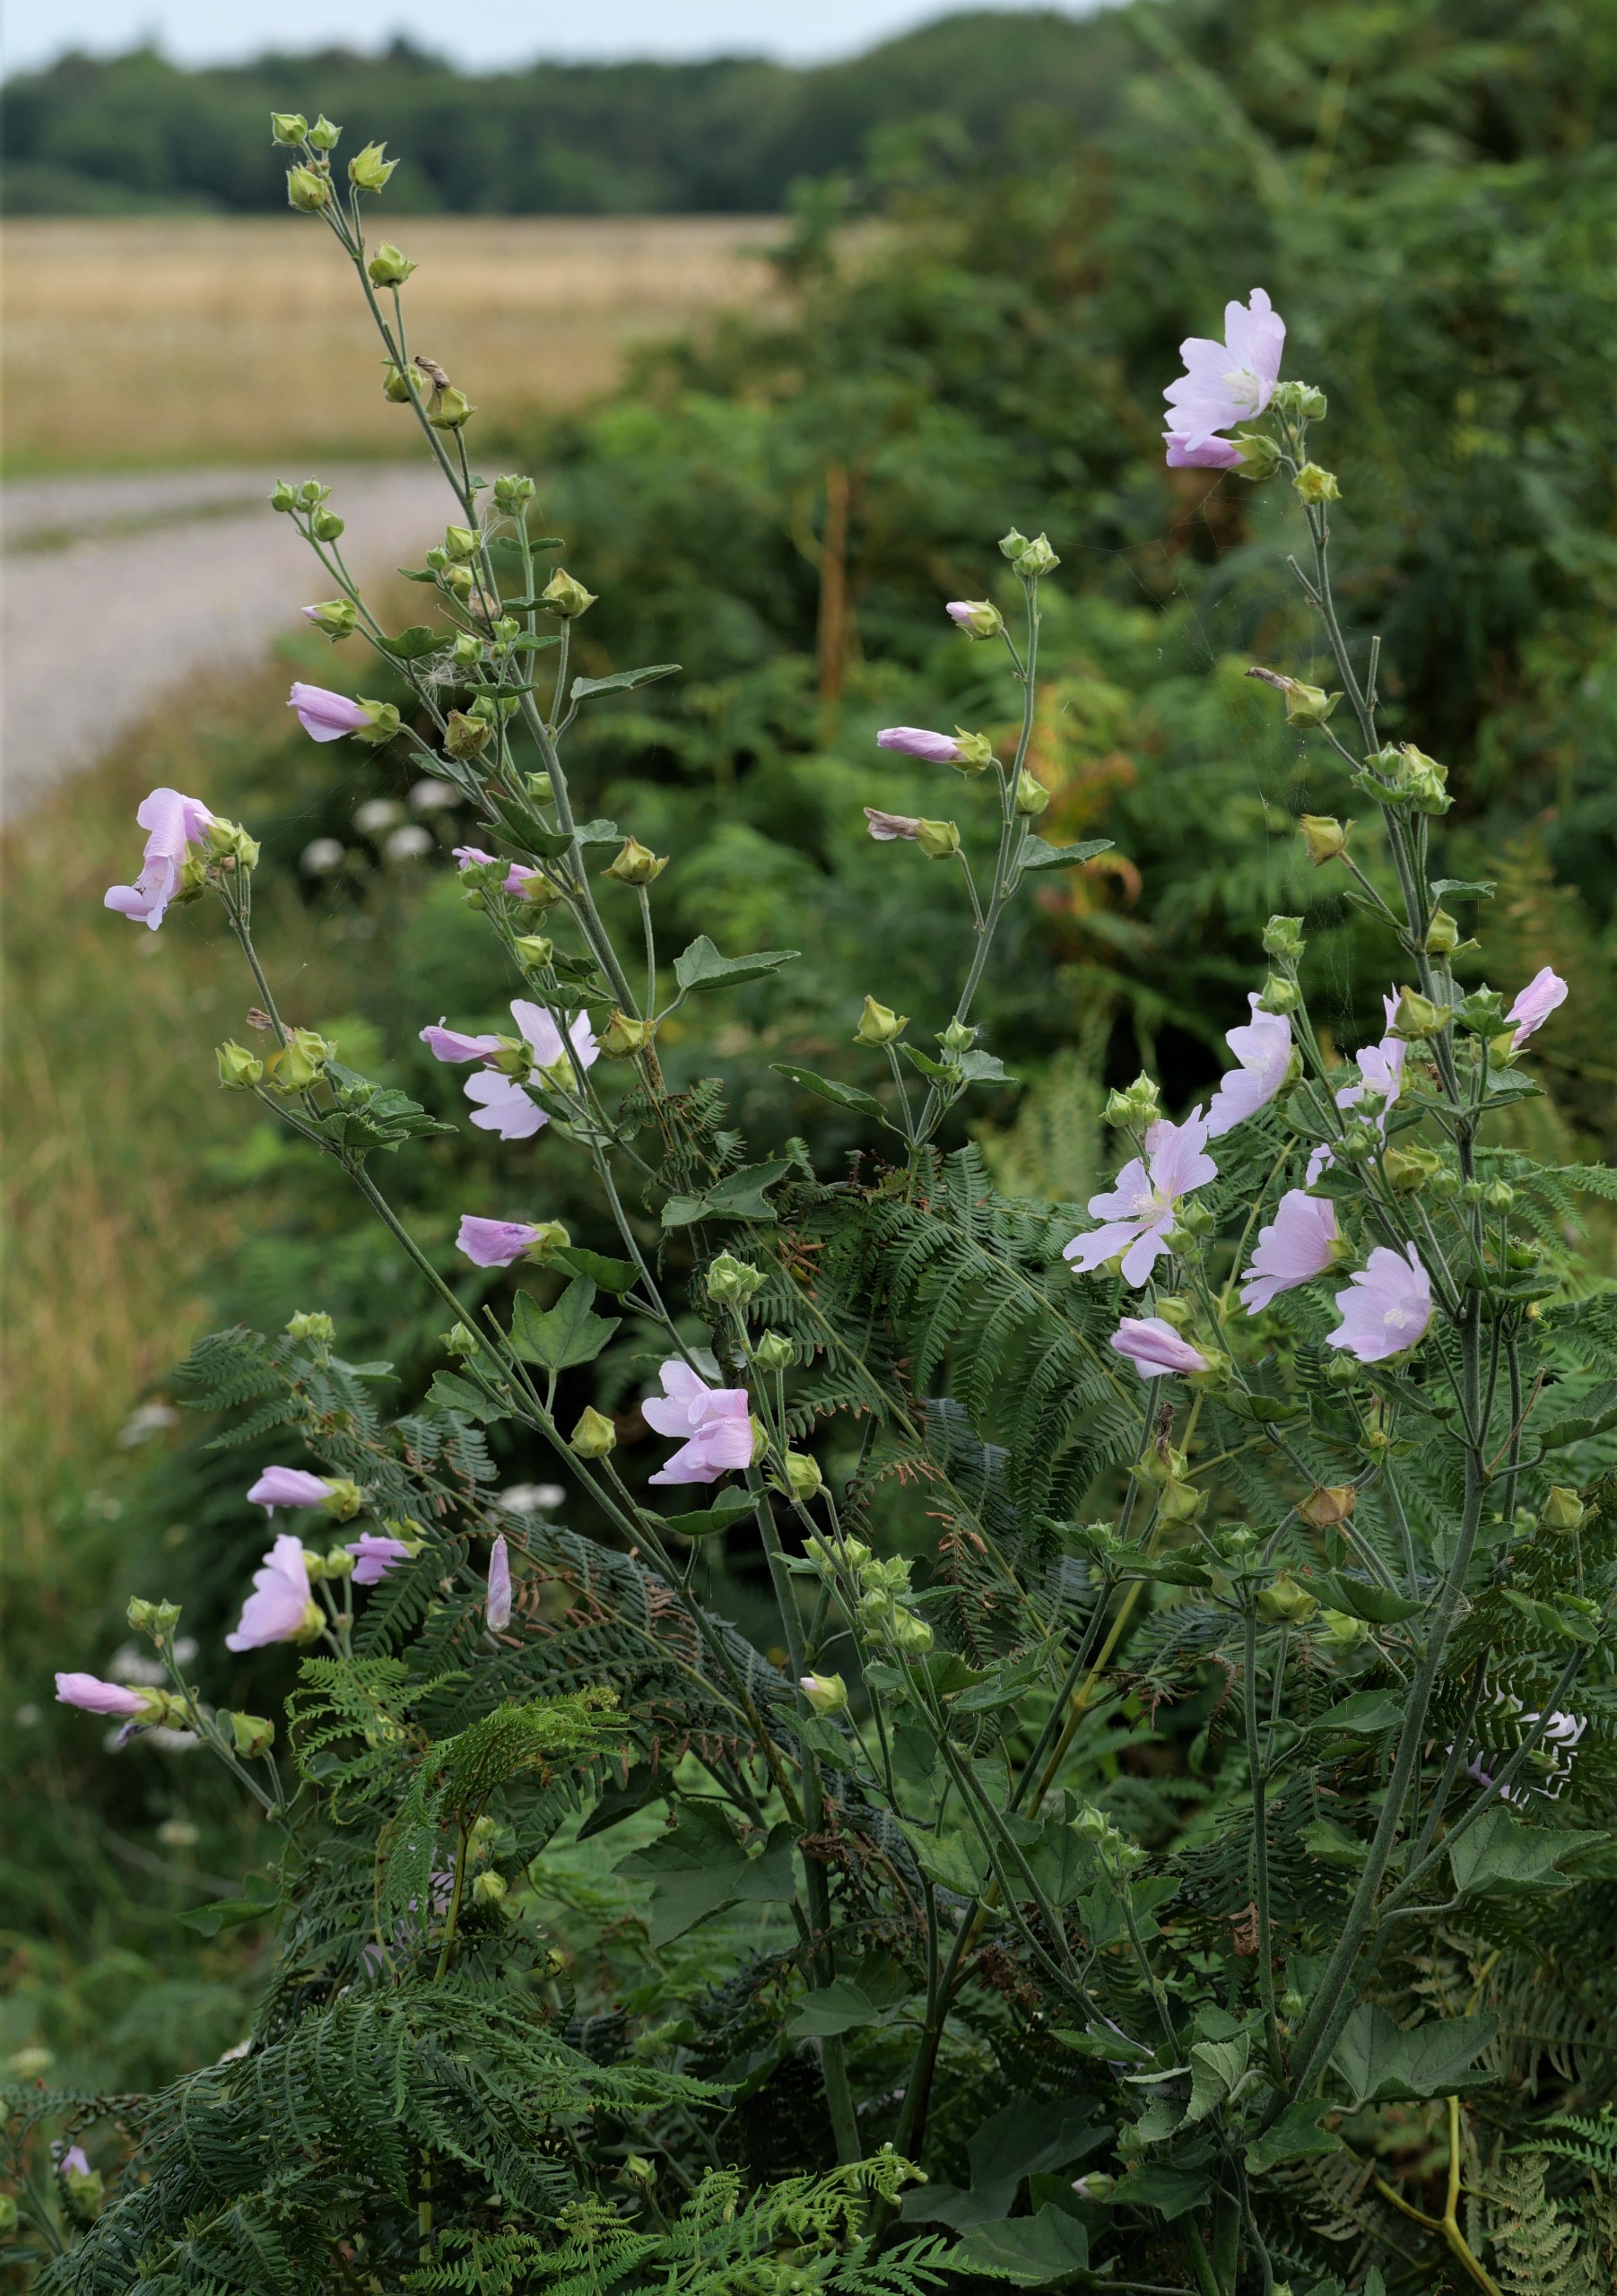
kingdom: Plantae
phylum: Tracheophyta
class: Magnoliopsida
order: Malvales
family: Malvaceae
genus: Malva
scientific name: Malva thuringiaca
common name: Tysk poppelrose
